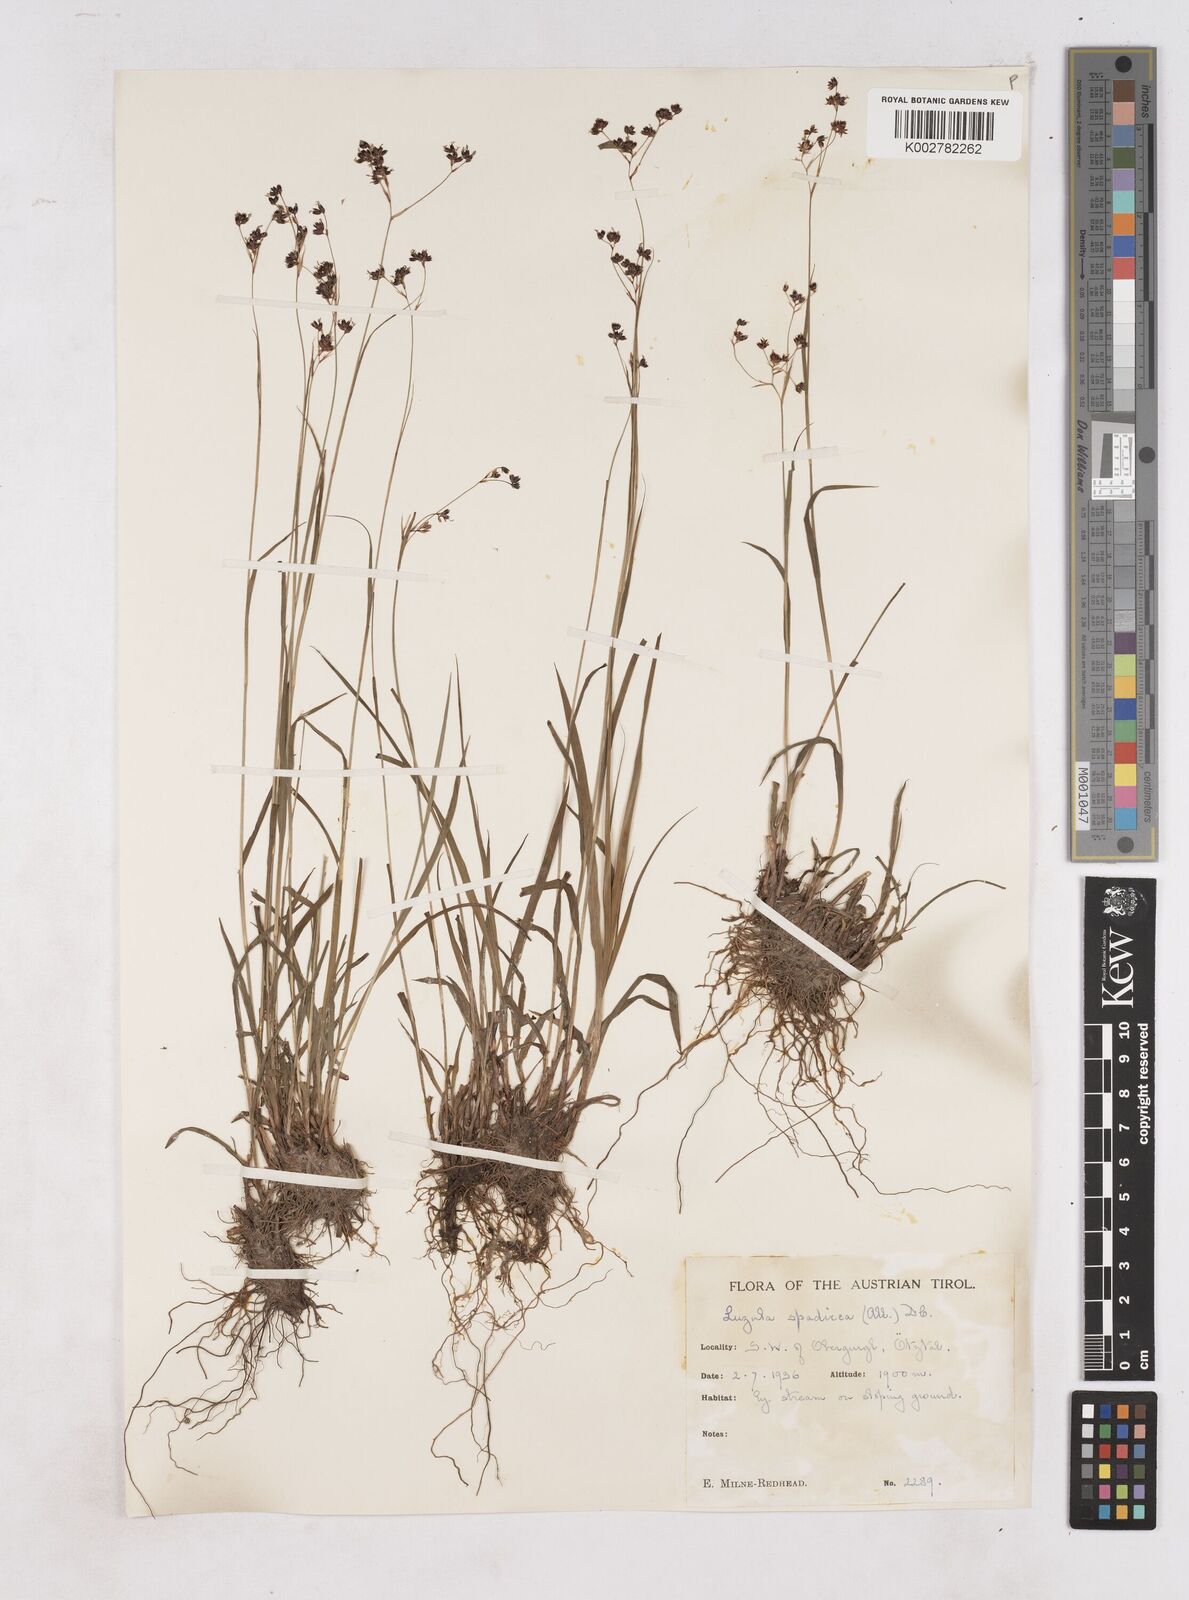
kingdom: Plantae
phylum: Tracheophyta
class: Liliopsida
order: Poales
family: Juncaceae
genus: Luzula
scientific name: Luzula alpinopilosa
